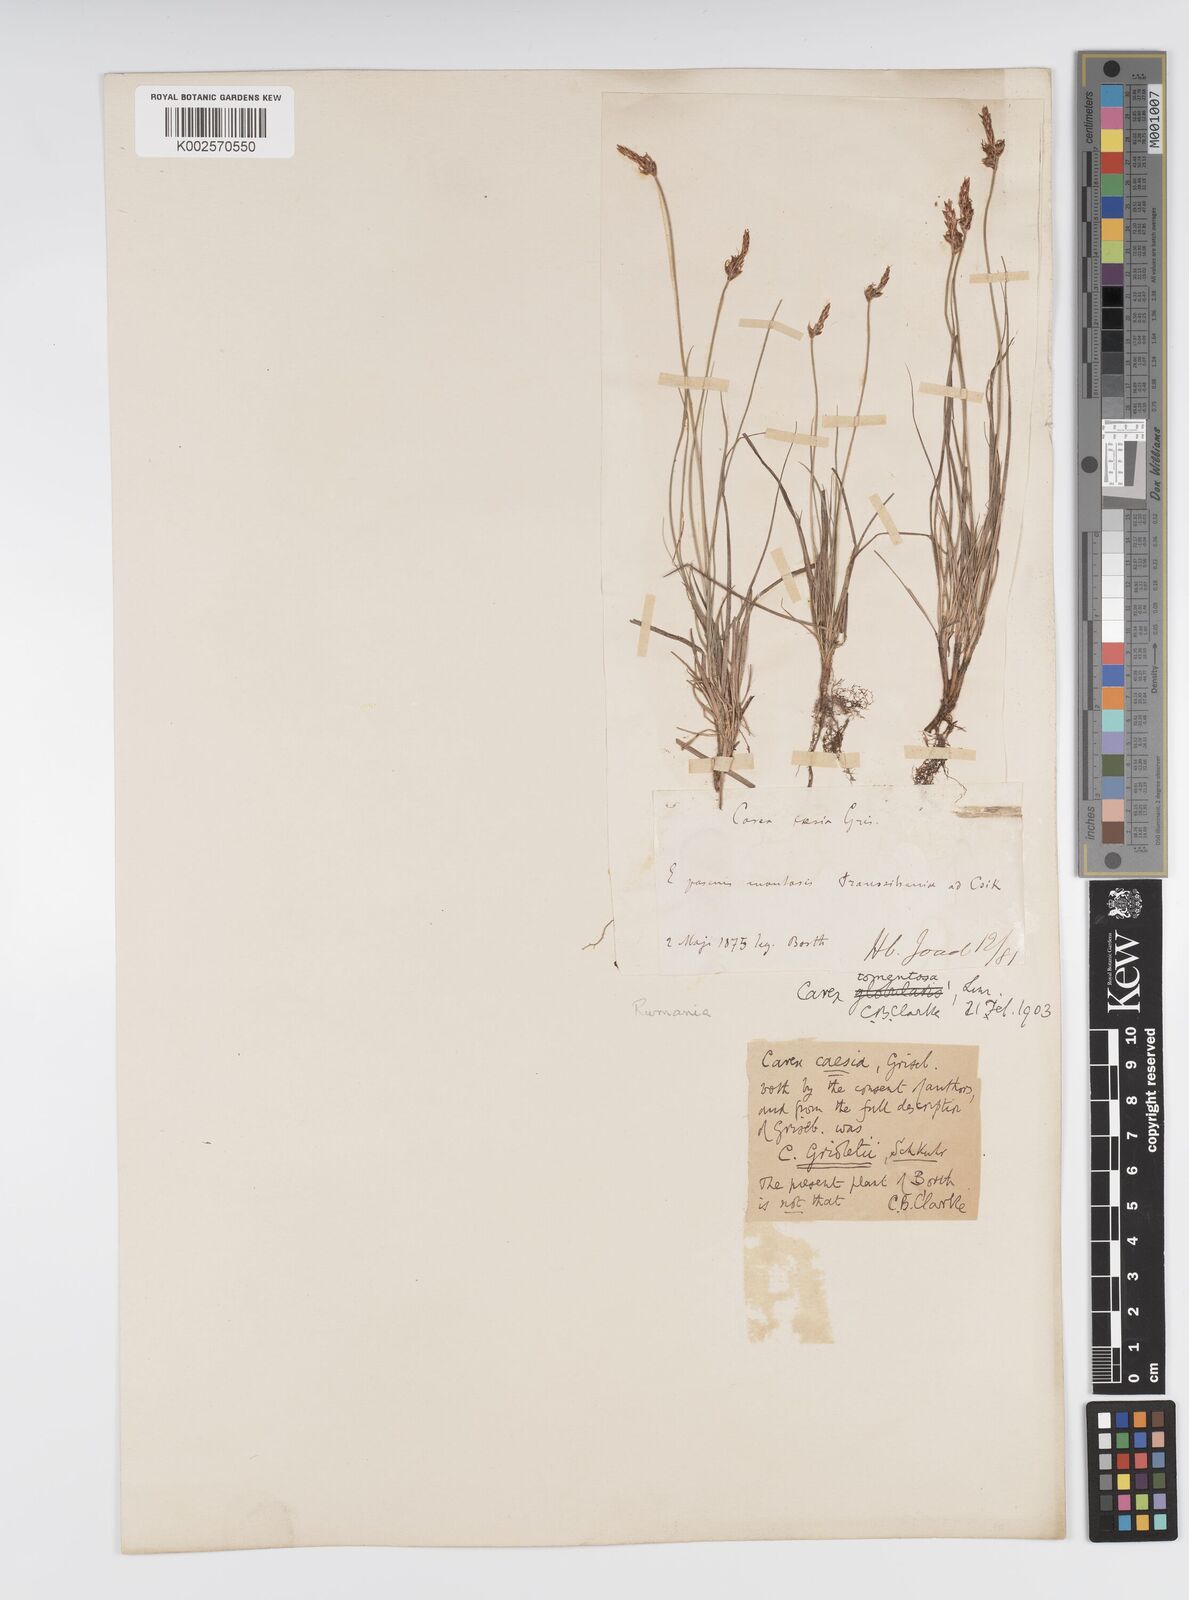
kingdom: Plantae
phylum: Tracheophyta
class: Liliopsida
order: Poales
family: Cyperaceae
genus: Carex
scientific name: Carex montana
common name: Soft-leaved sedge
